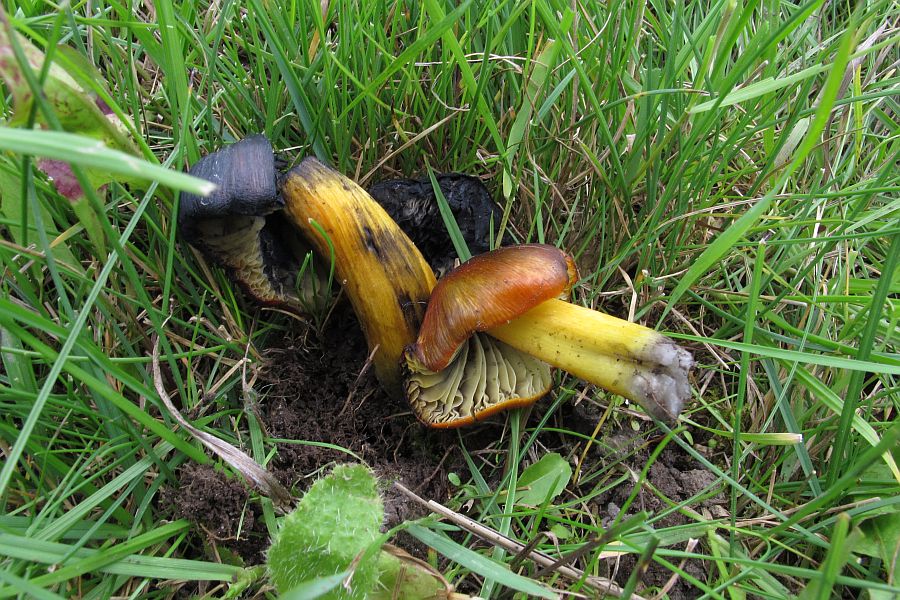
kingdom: Fungi
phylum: Basidiomycota
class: Agaricomycetes
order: Agaricales
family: Hygrophoraceae
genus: Hygrocybe
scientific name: Hygrocybe conica
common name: kegle-vokshat
